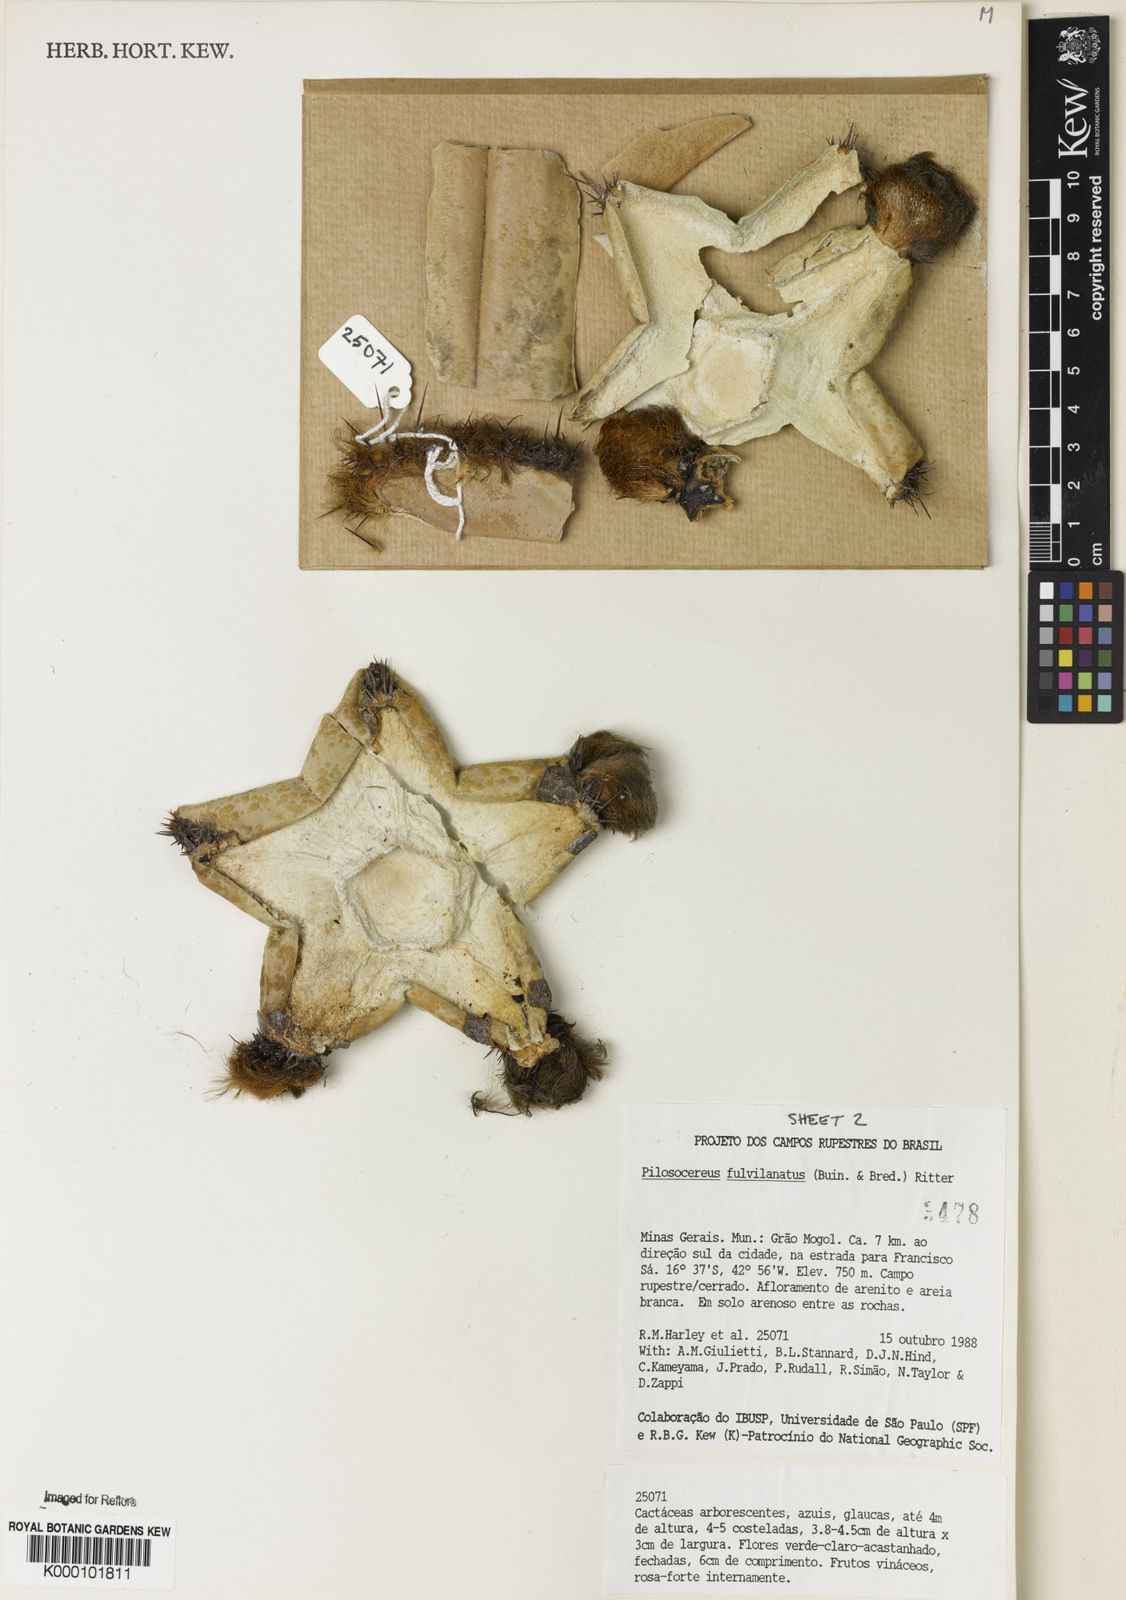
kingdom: Plantae
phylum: Tracheophyta
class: Magnoliopsida
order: Caryophyllales
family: Cactaceae
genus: Pilosocereus
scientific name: Pilosocereus fulvilanatus
